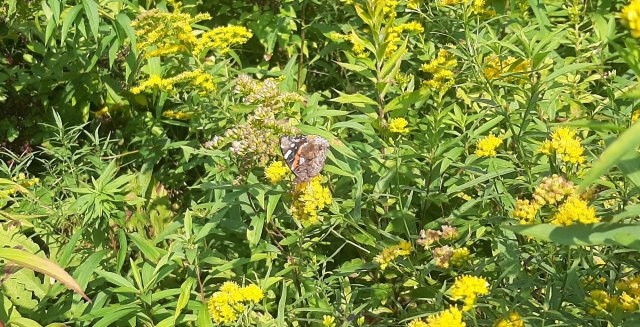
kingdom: Animalia
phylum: Arthropoda
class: Insecta
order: Lepidoptera
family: Nymphalidae
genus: Vanessa
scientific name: Vanessa atalanta
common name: Red Admiral
